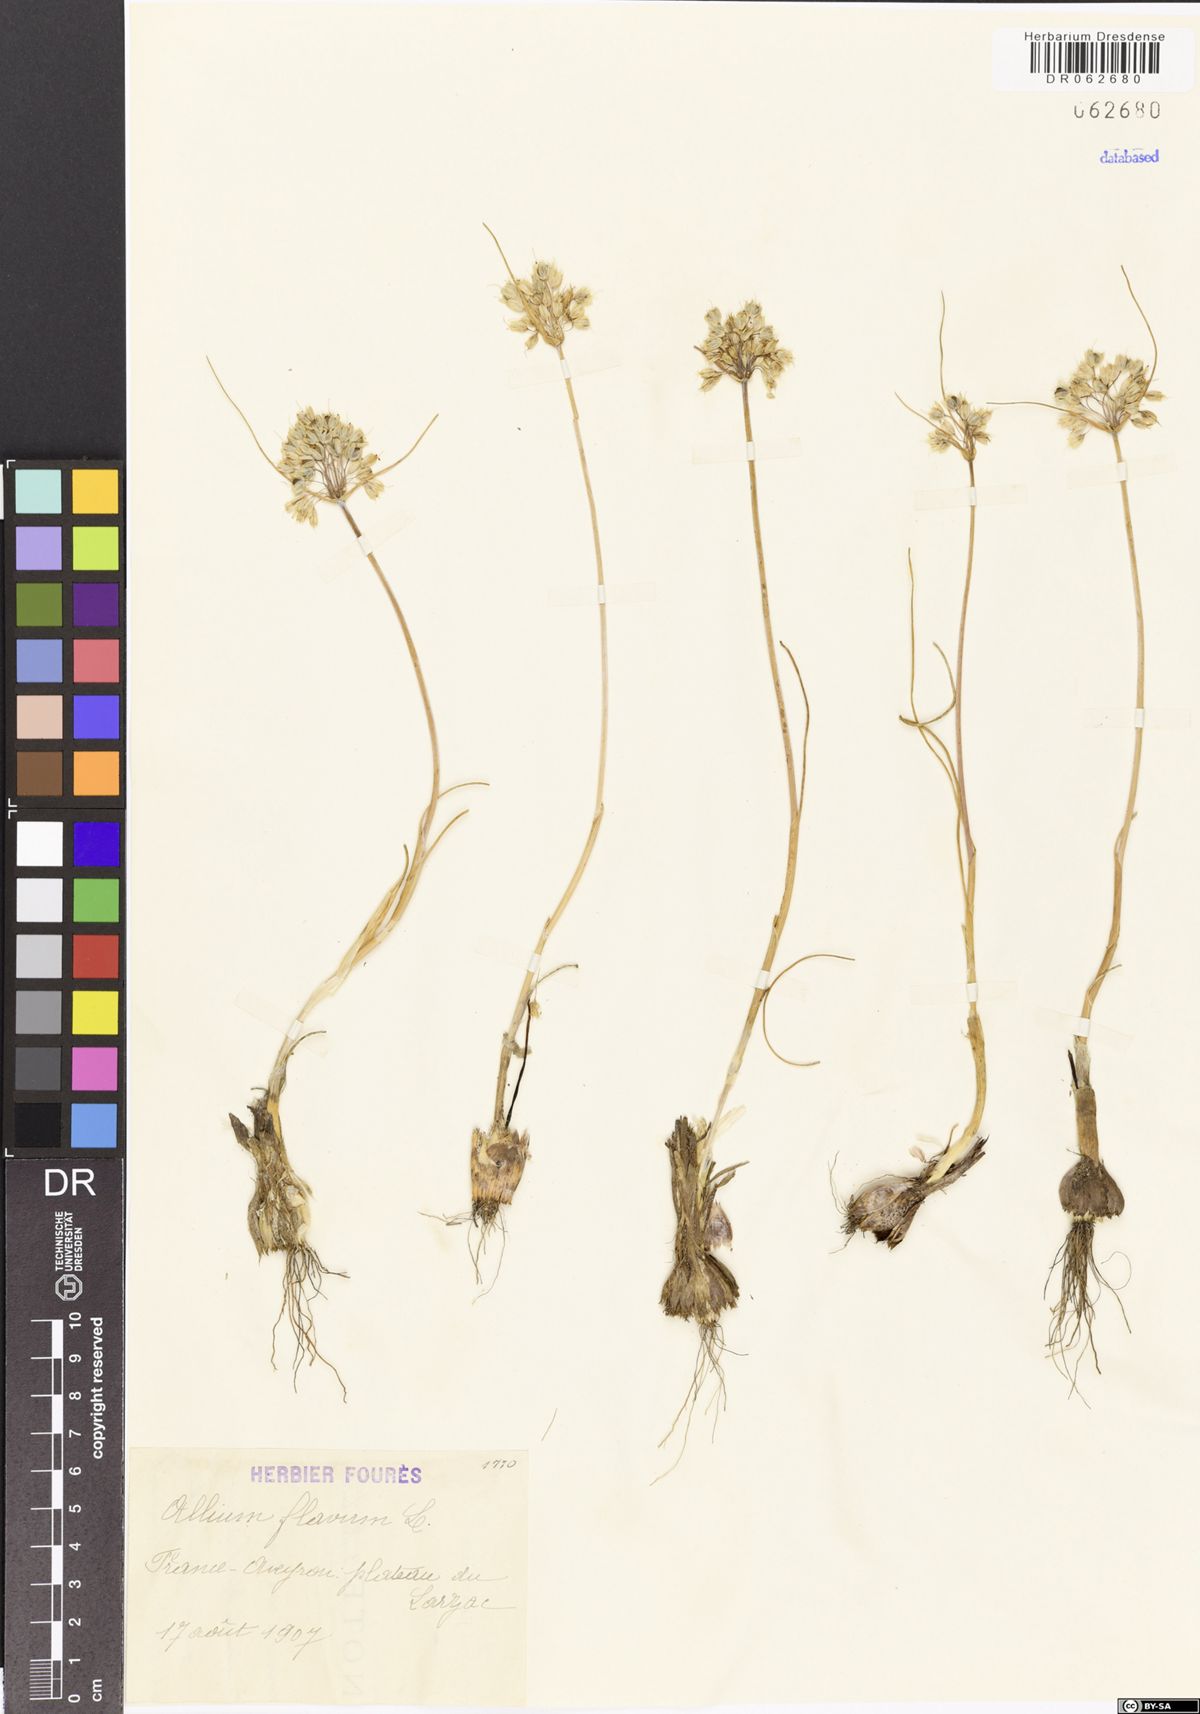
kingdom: Plantae
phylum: Tracheophyta
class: Liliopsida
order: Asparagales
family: Amaryllidaceae
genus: Allium
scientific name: Allium flavum
